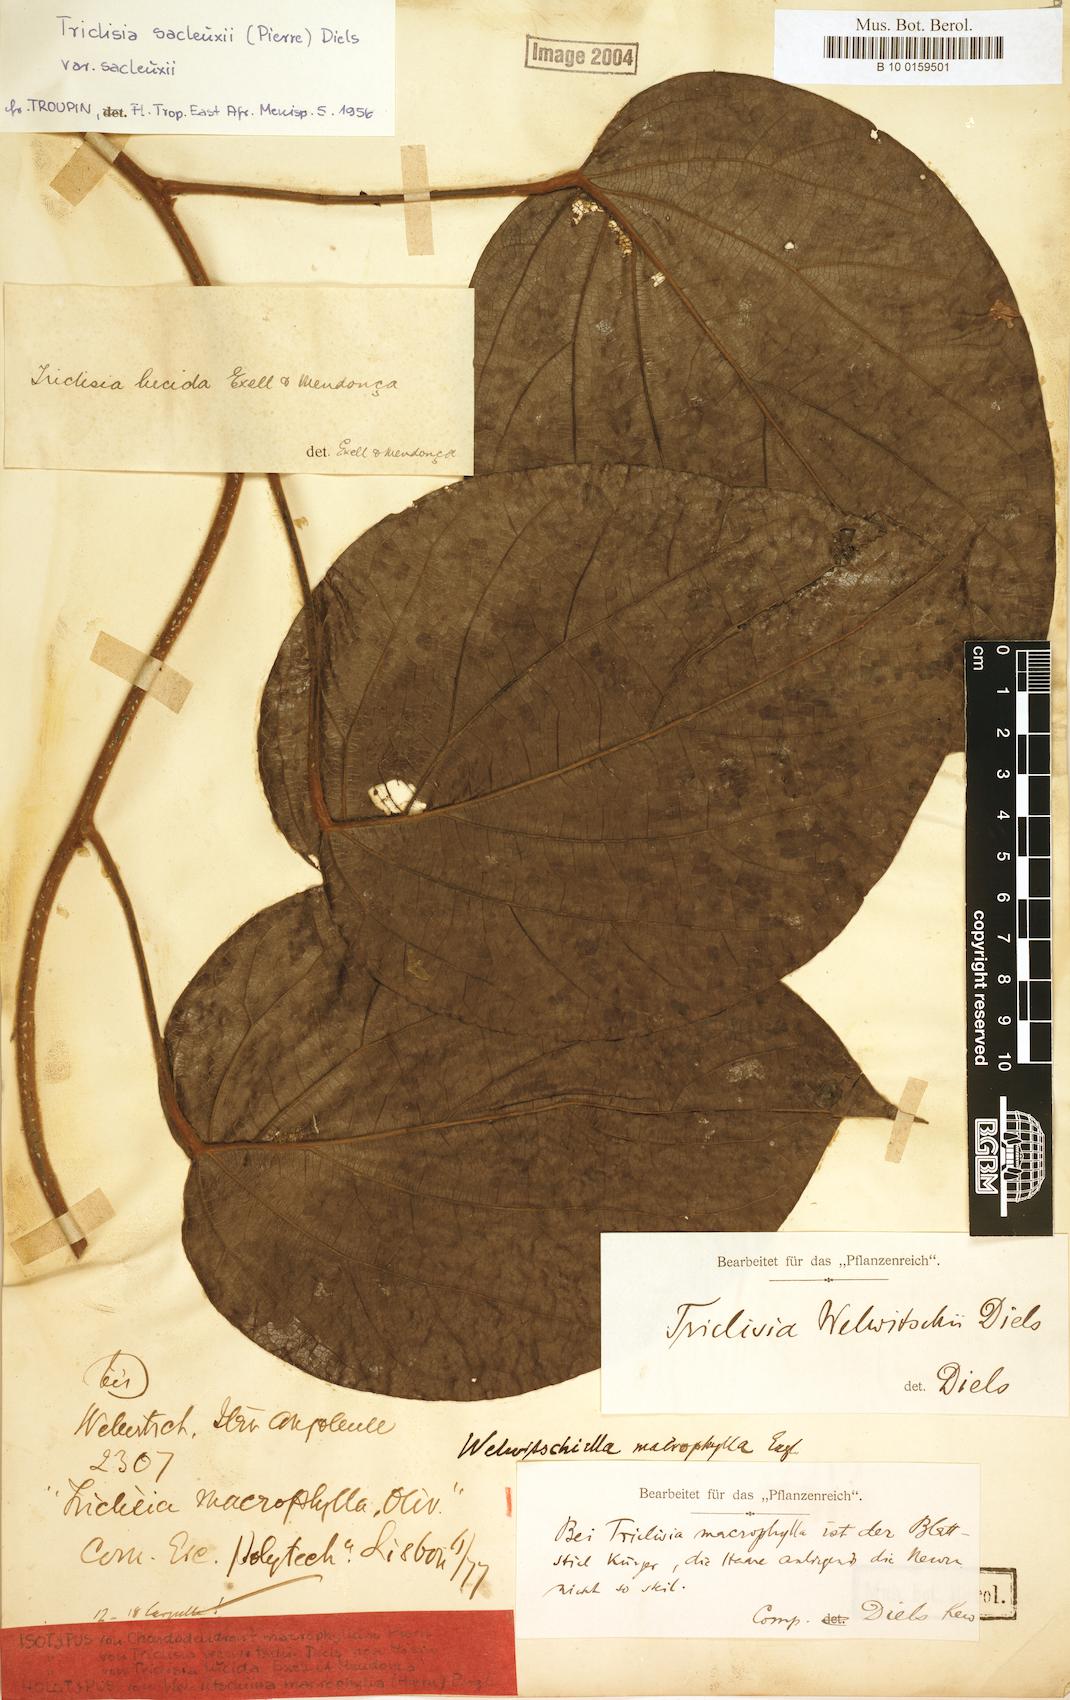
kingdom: Plantae
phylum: Tracheophyta
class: Magnoliopsida
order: Ranunculales
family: Menispermaceae
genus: Triclisia
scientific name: Triclisia sacleuxii
